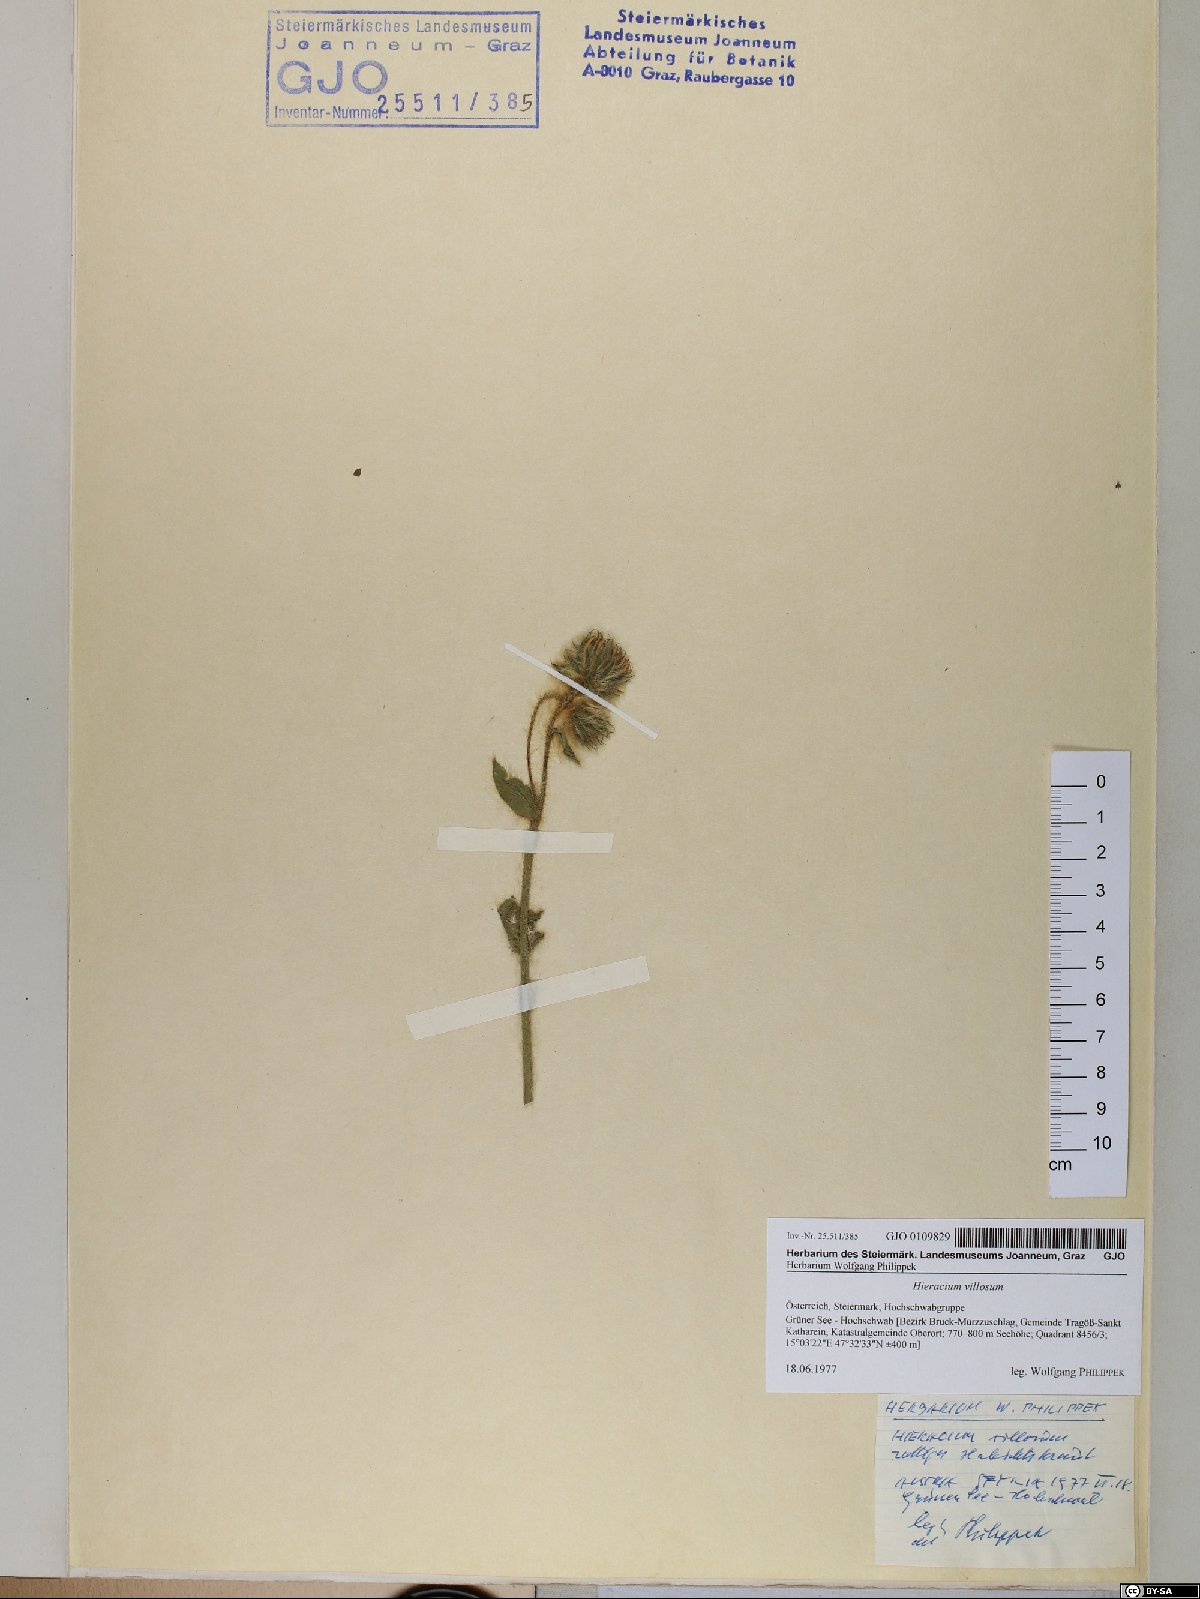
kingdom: Plantae
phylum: Tracheophyta
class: Magnoliopsida
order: Asterales
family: Asteraceae
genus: Hieracium
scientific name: Hieracium villosum
